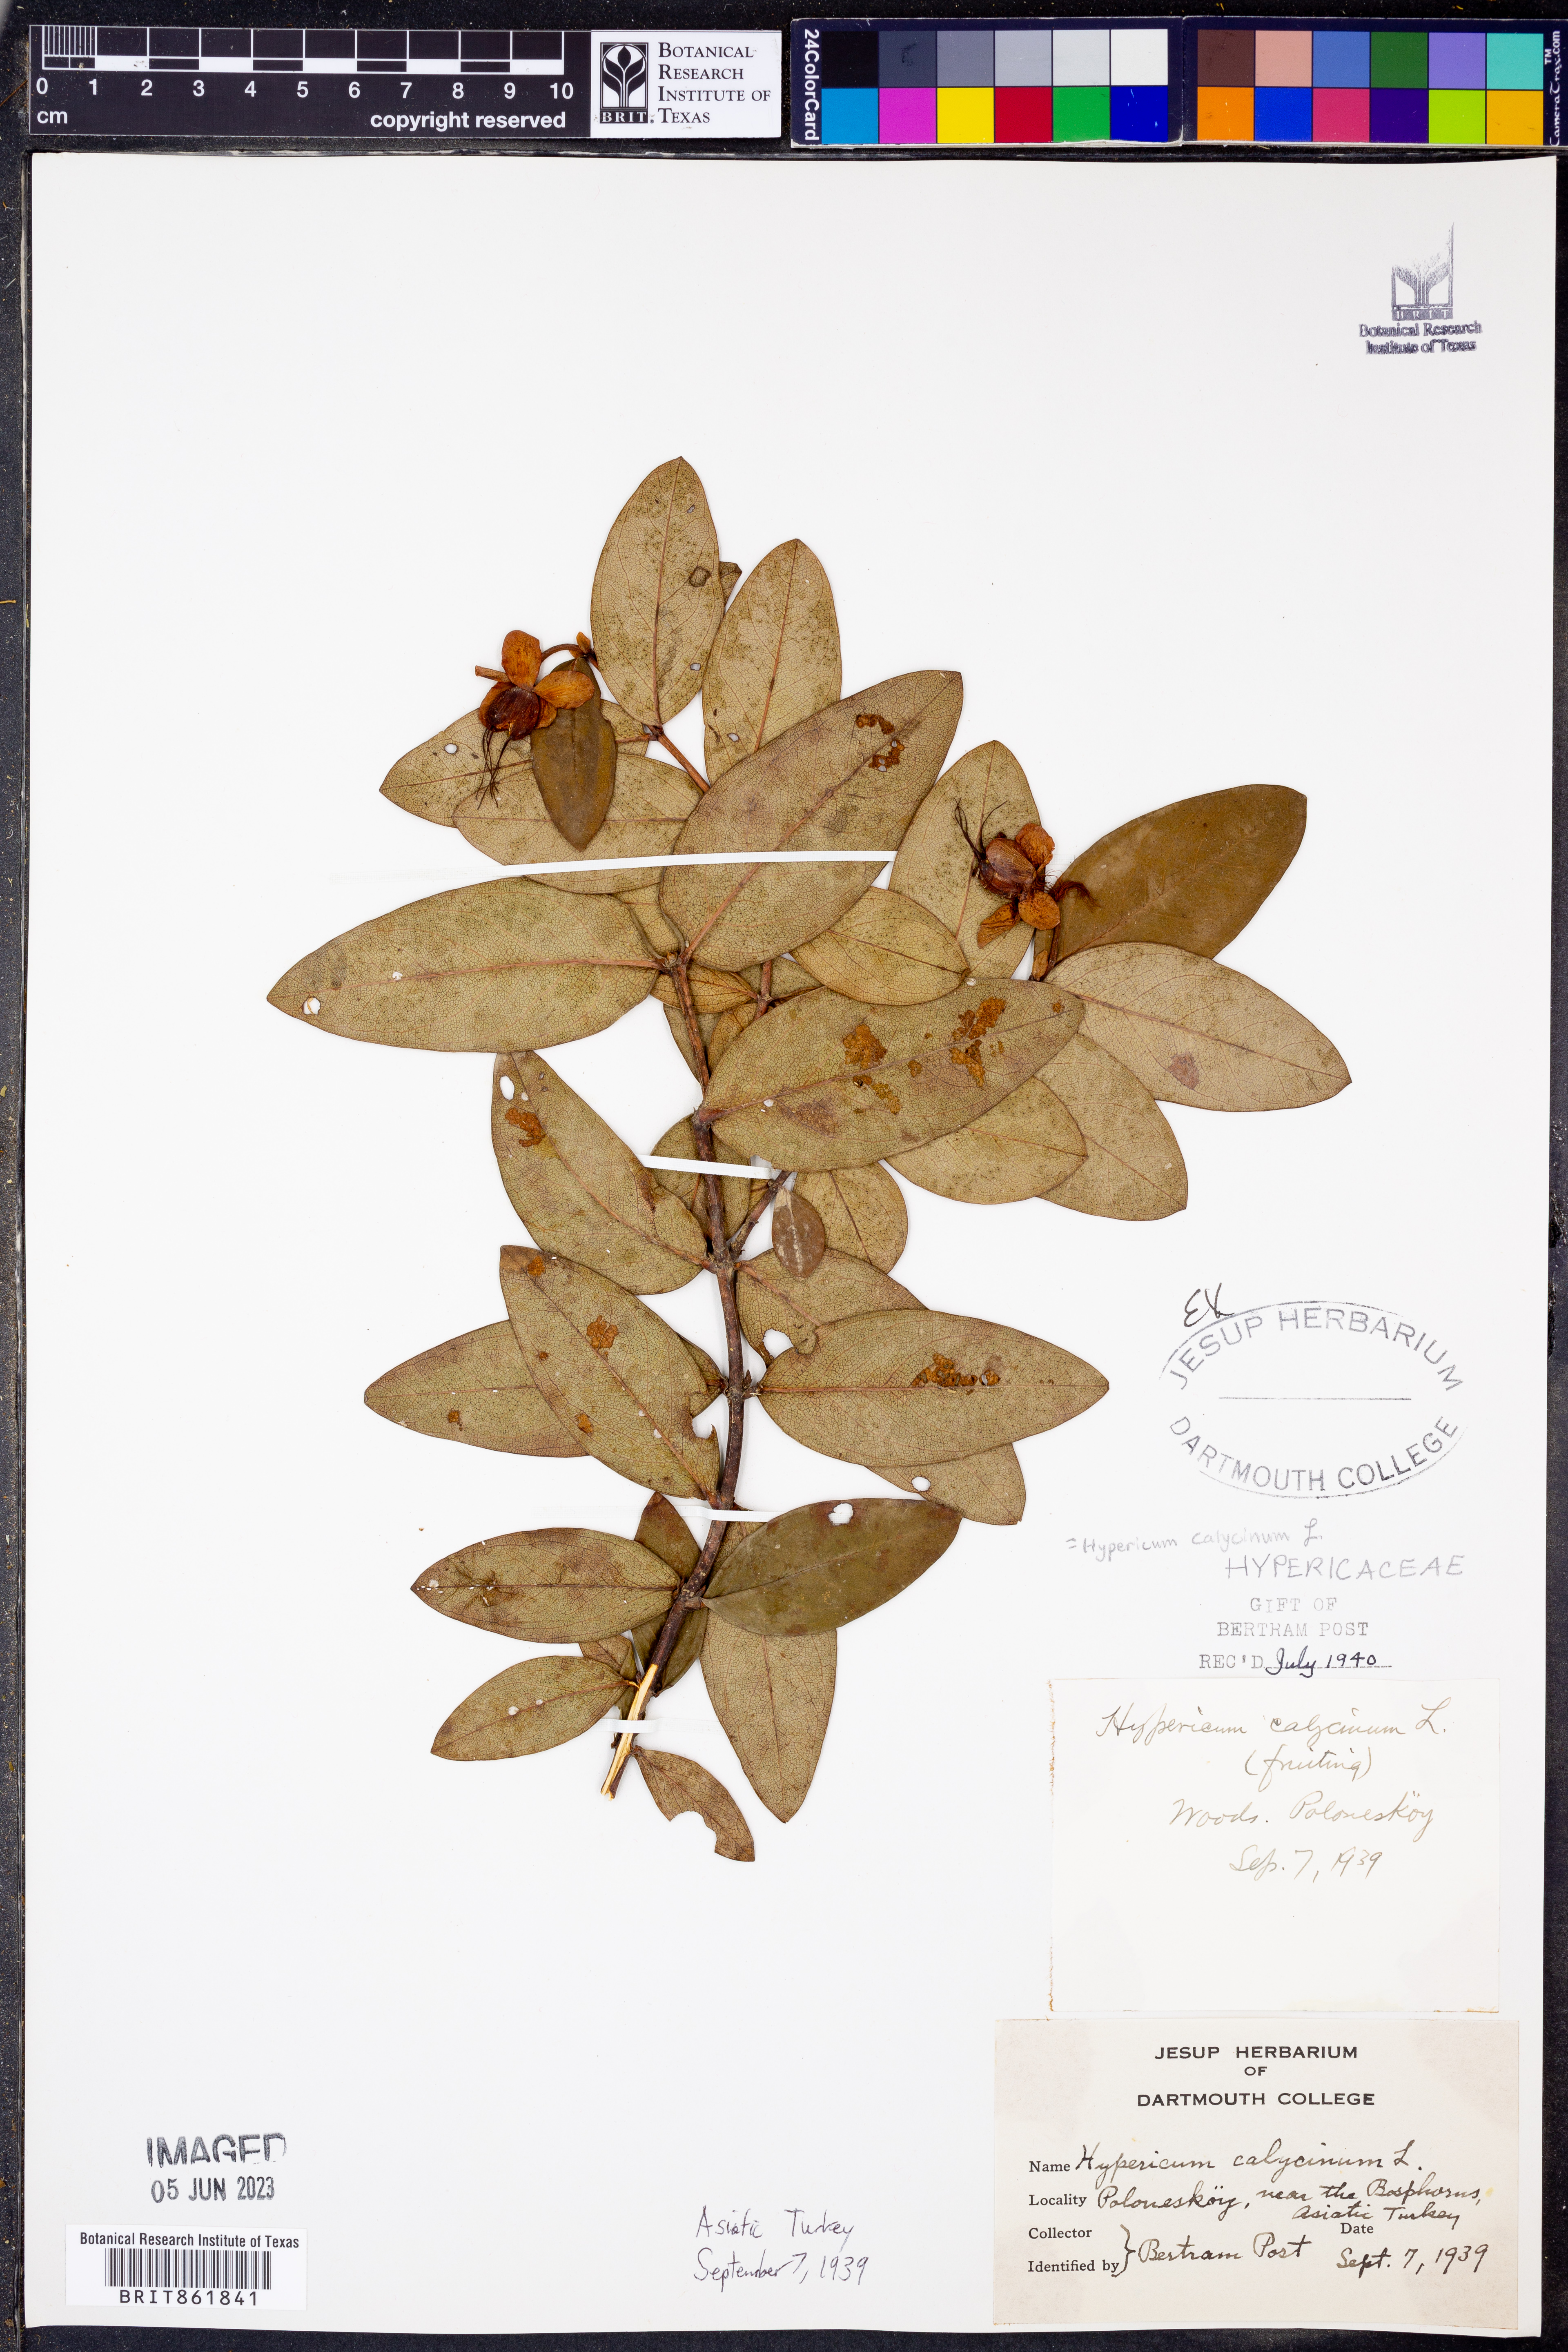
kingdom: Plantae
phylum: Tracheophyta
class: Magnoliopsida
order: Malpighiales
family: Hypericaceae
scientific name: Hypericaceae
